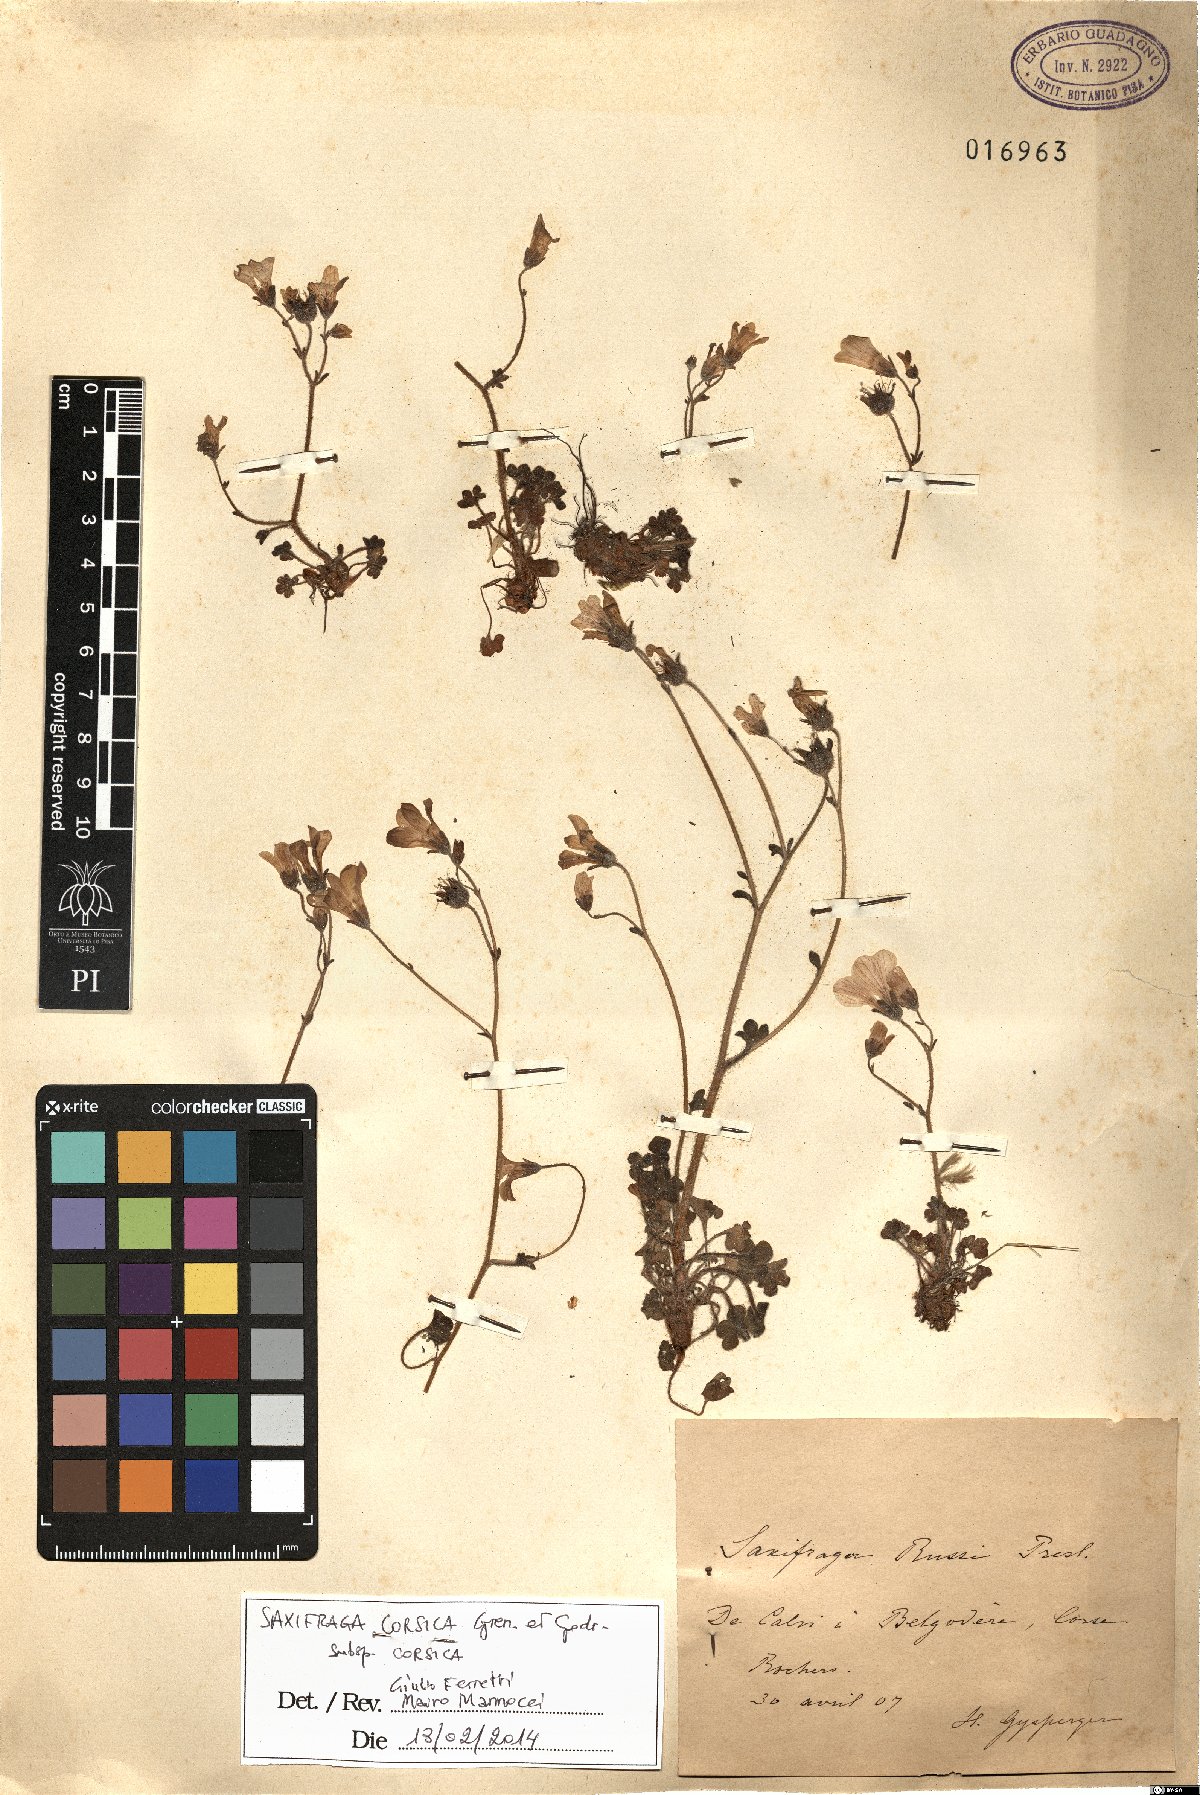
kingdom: Plantae
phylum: Tracheophyta
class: Magnoliopsida
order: Saxifragales
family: Saxifragaceae
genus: Saxifraga
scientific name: Saxifraga corsica
